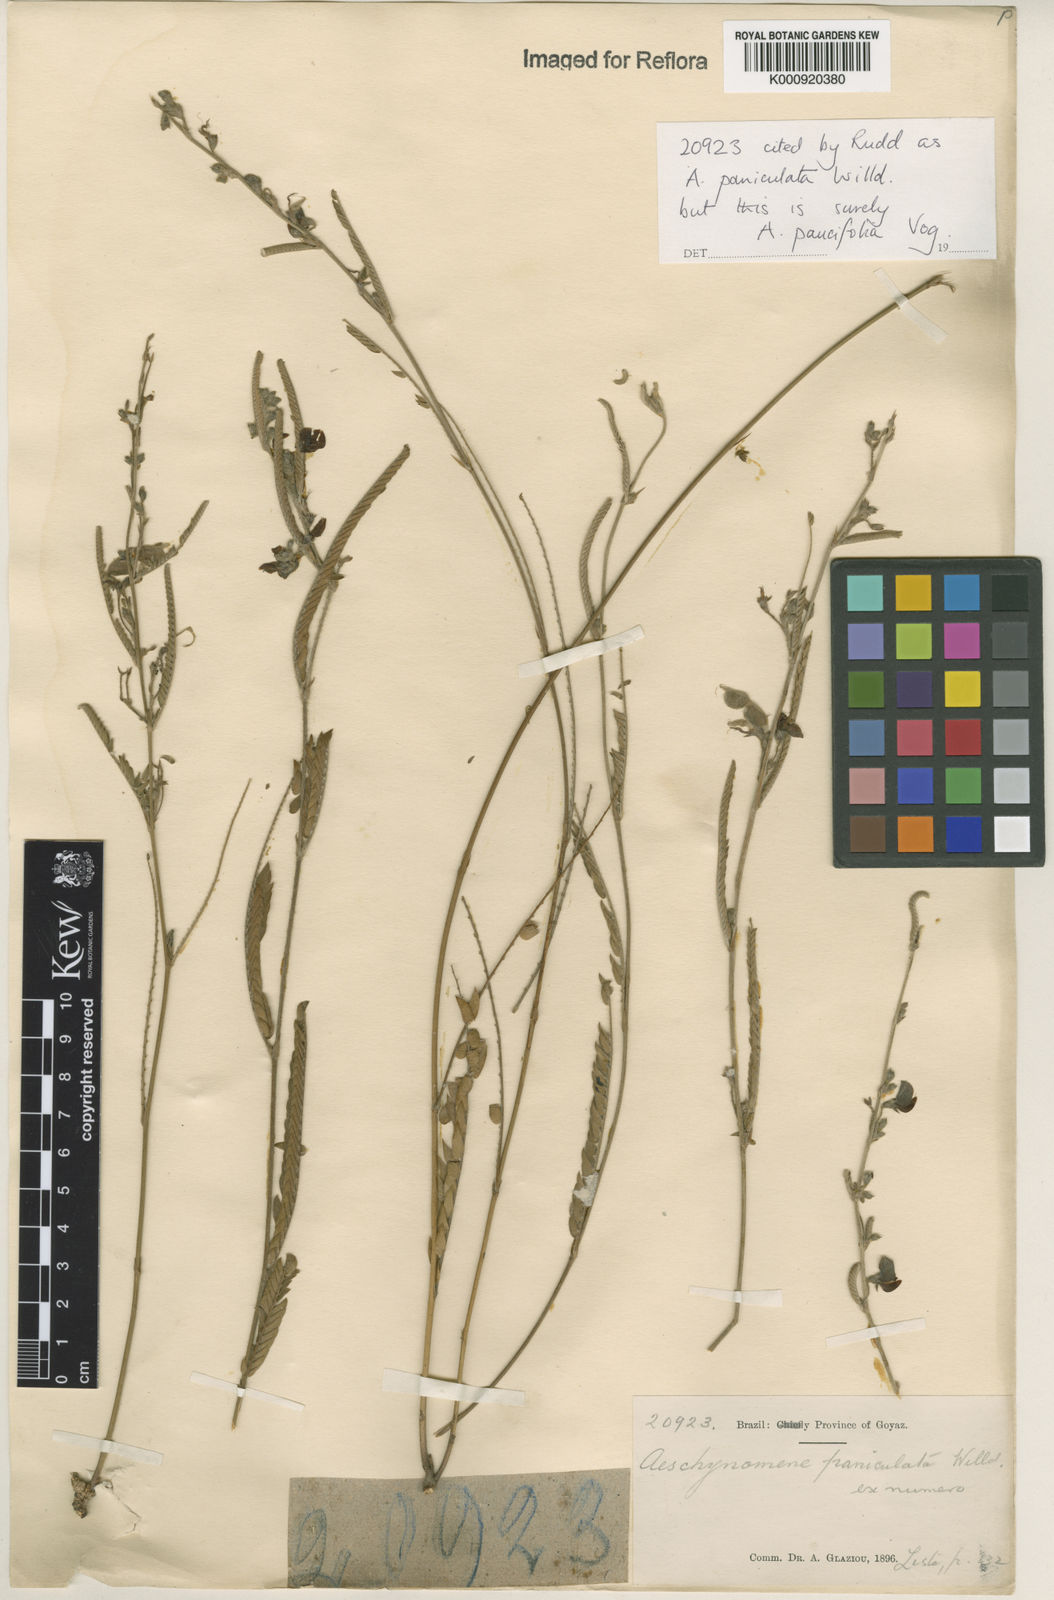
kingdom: Plantae
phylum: Tracheophyta
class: Magnoliopsida
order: Fabales
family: Fabaceae
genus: Ctenodon
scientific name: Ctenodon paucifolius
